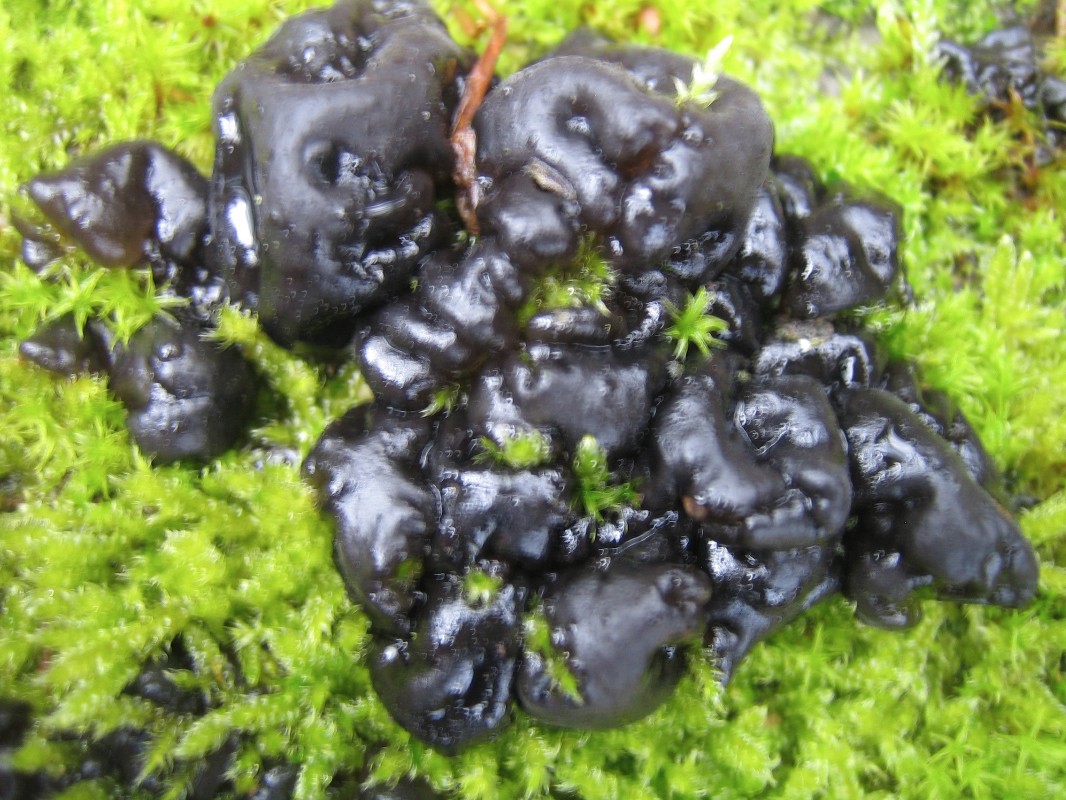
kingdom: Fungi
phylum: Basidiomycota
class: Agaricomycetes
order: Auriculariales
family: Auriculariaceae
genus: Exidia
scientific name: Exidia nigricans
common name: almindelig bævretop
